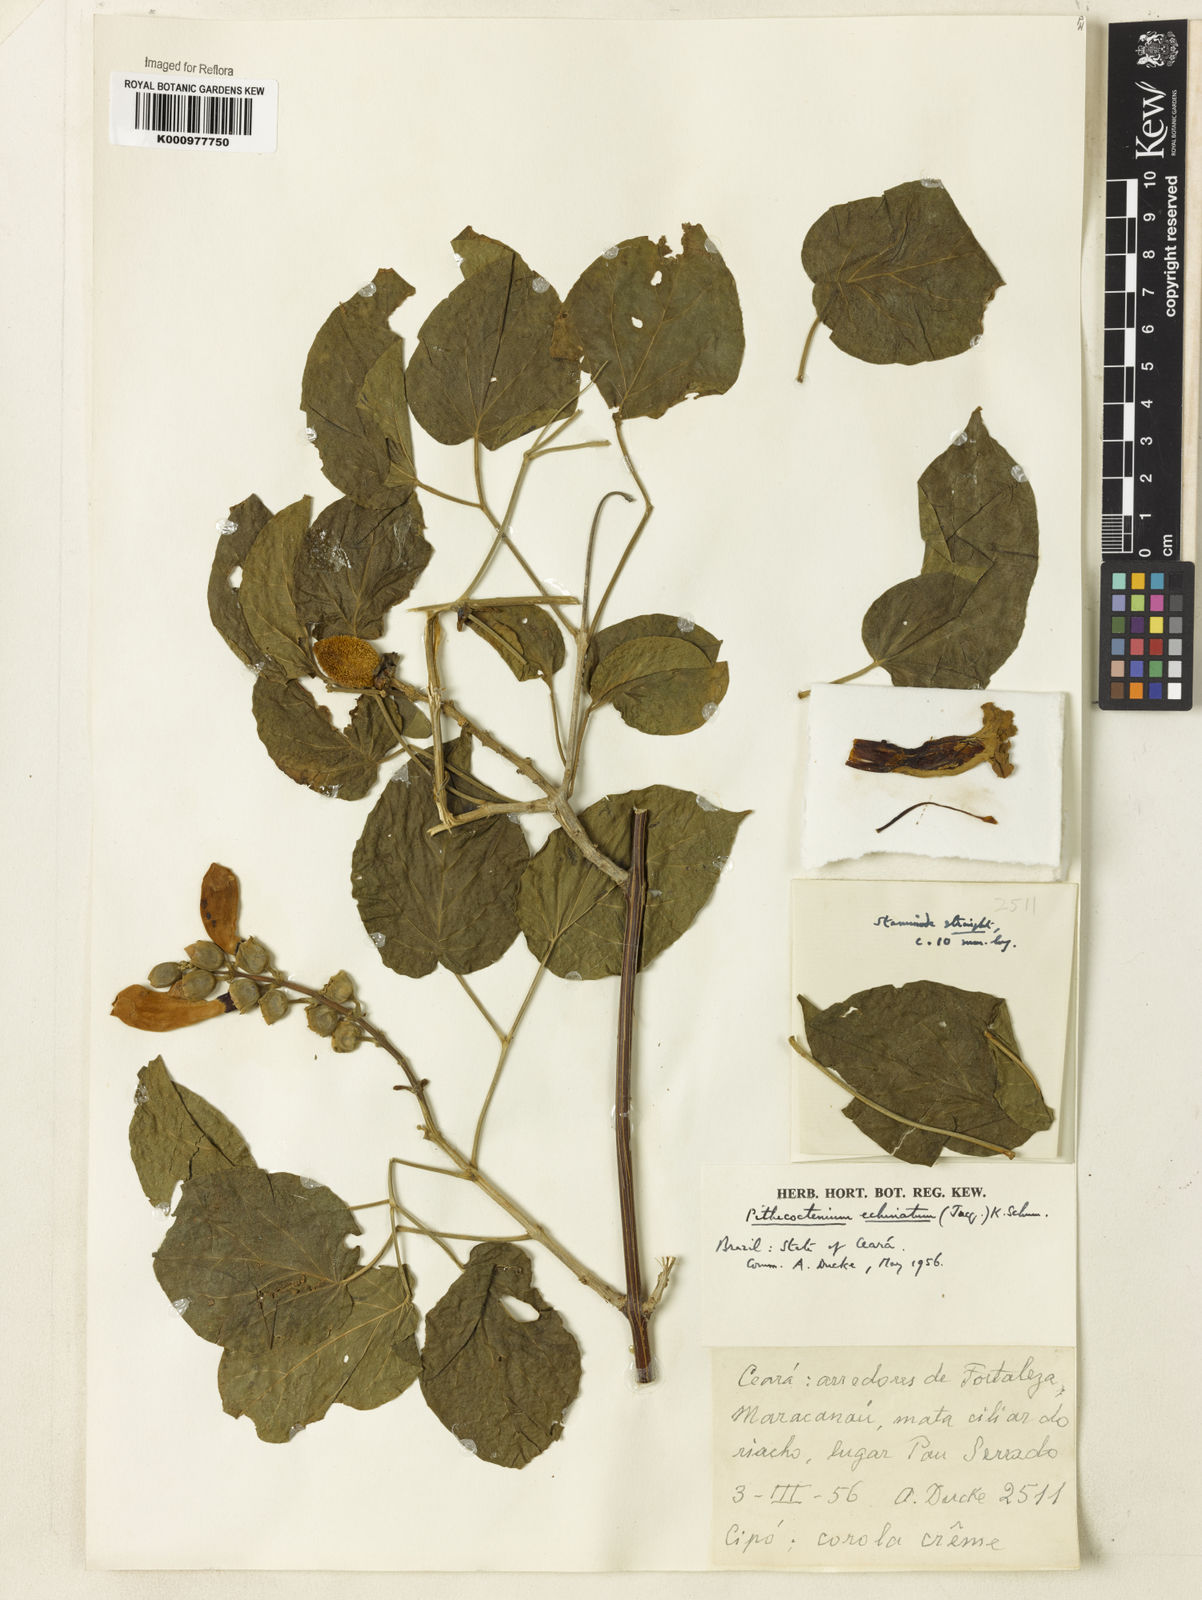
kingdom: Plantae
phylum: Tracheophyta
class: Magnoliopsida
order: Lamiales
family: Bignoniaceae
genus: Amphilophium
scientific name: Amphilophium crucigerum
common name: Monkey comb
